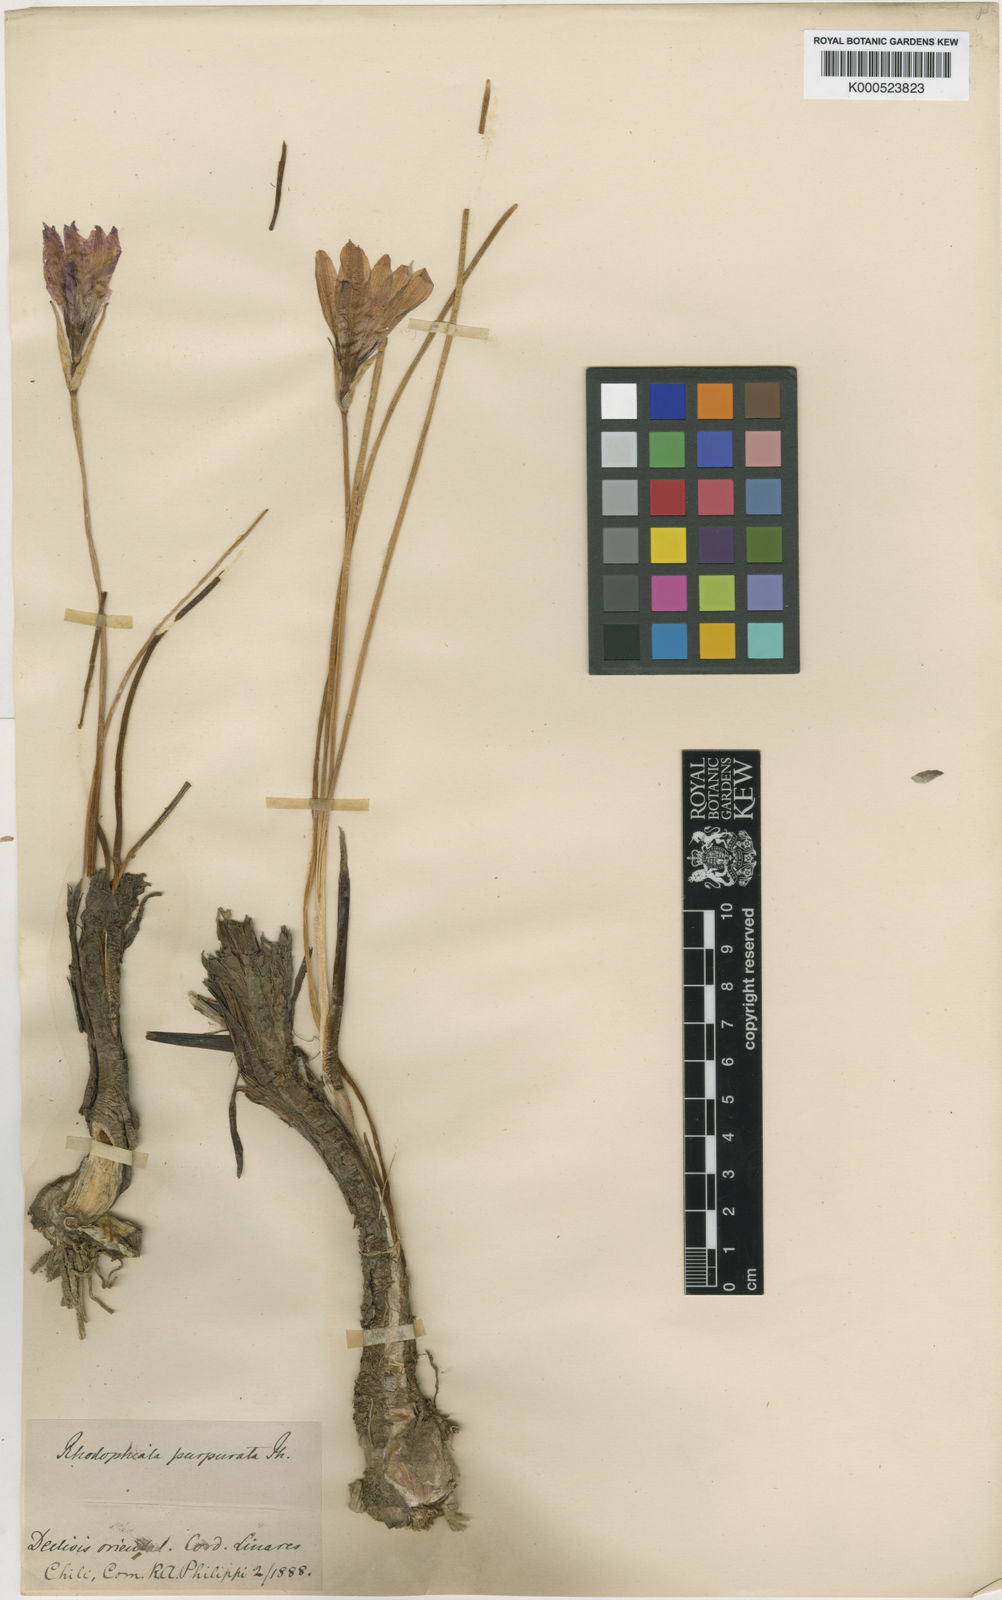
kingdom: Plantae
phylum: Tracheophyta
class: Liliopsida
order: Asparagales
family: Amaryllidaceae
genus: Rhodolirium
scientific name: Rhodolirium andicola
